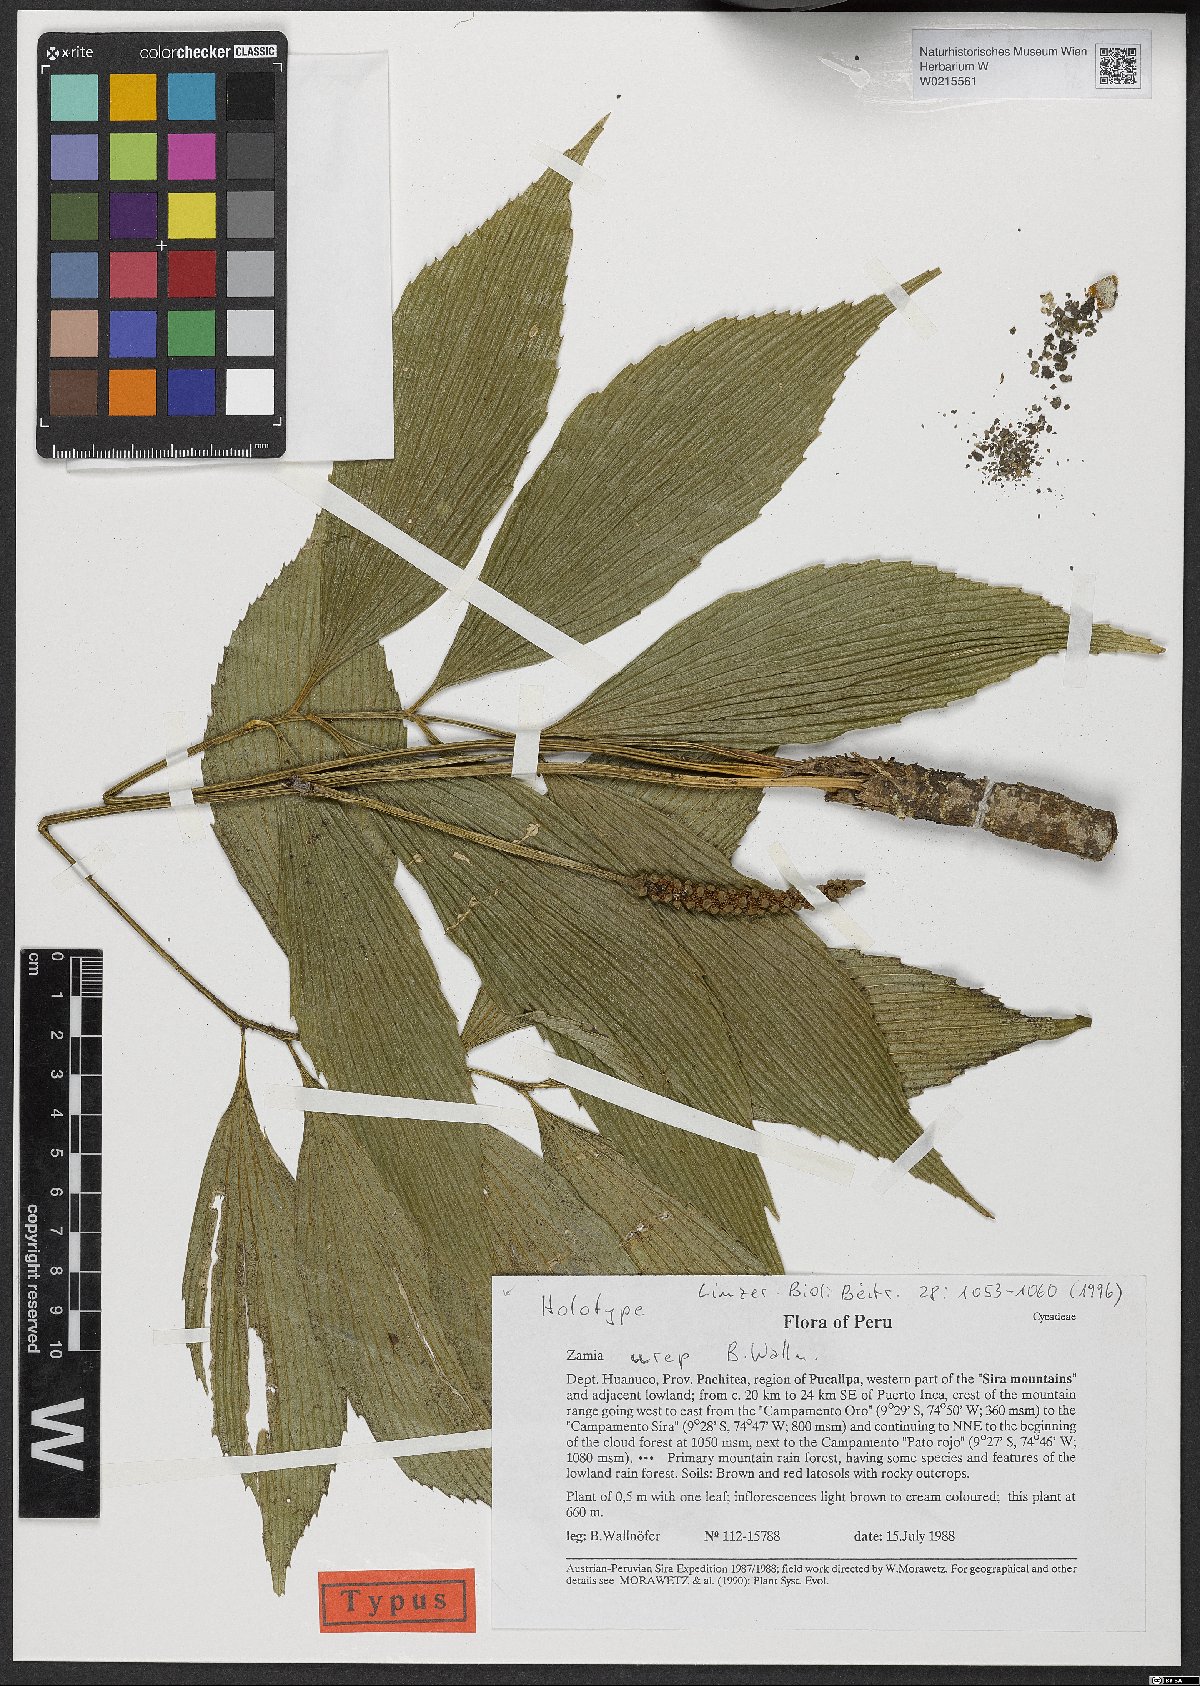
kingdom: Plantae
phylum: Tracheophyta
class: Cycadopsida
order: Cycadales
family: Zamiaceae
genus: Zamia
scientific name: Zamia urep
